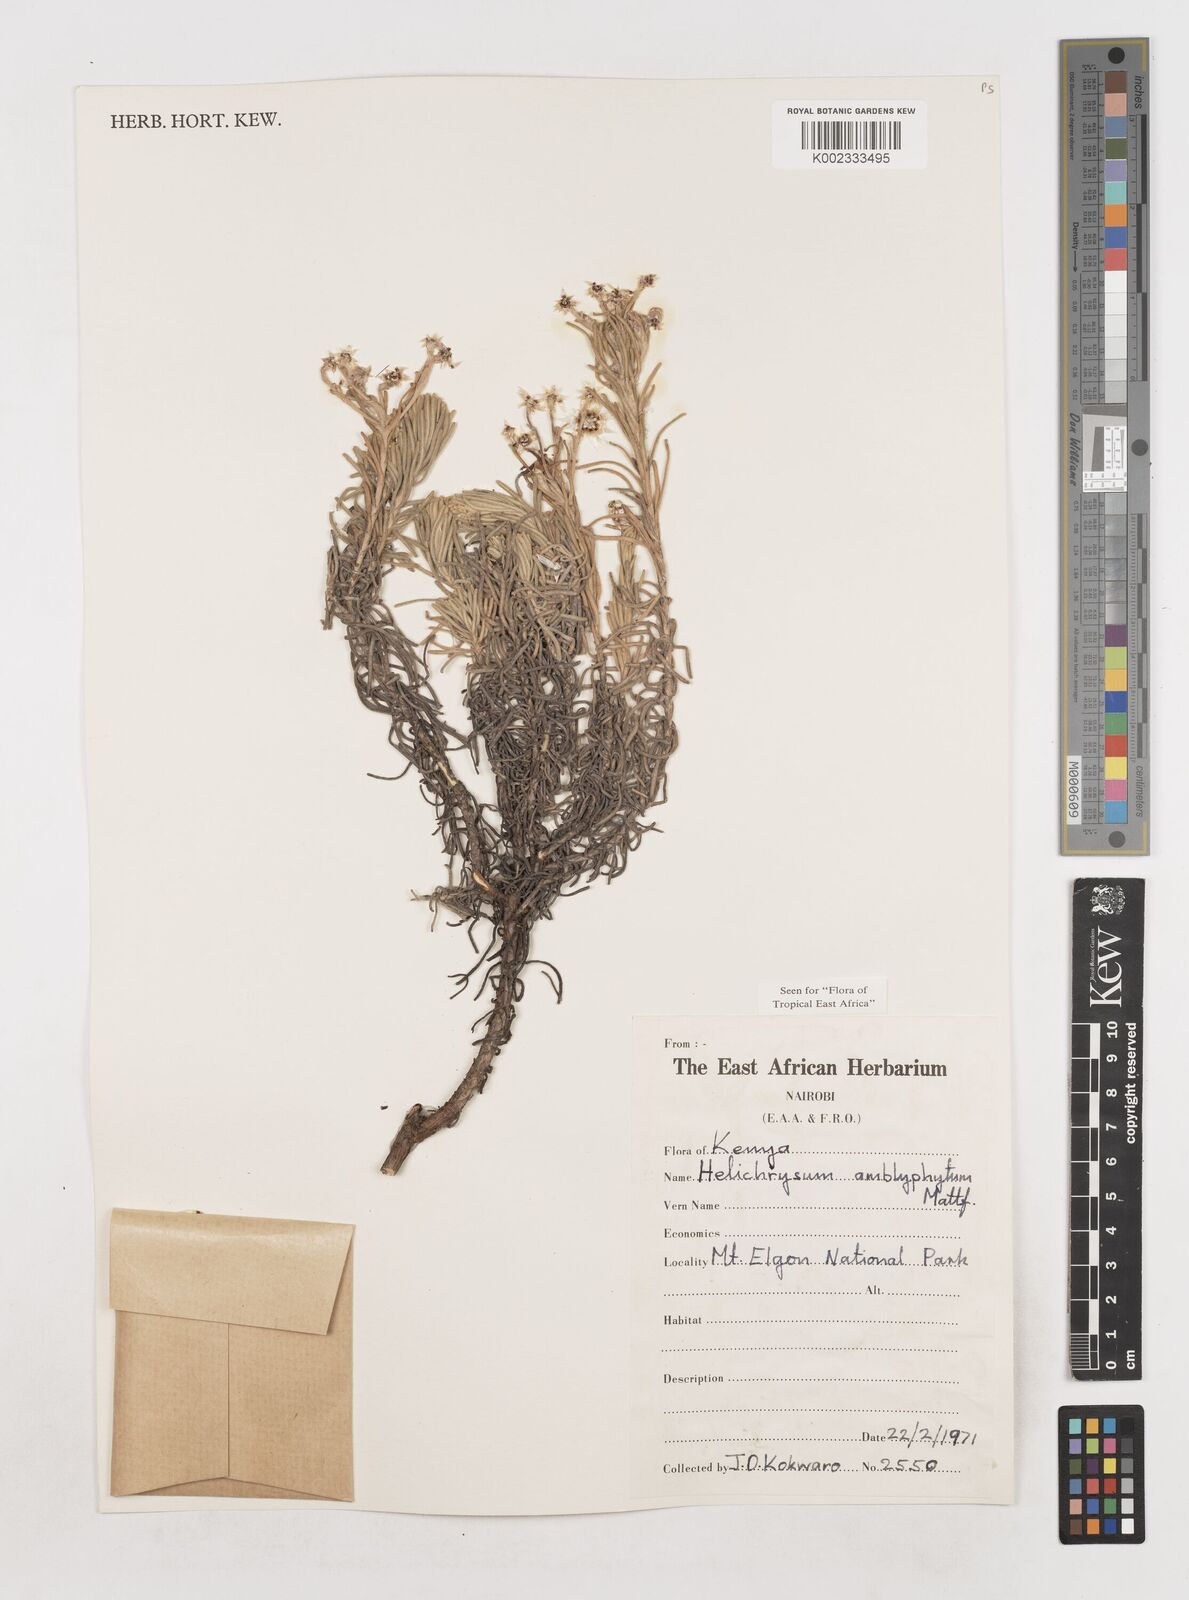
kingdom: Plantae
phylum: Tracheophyta
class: Magnoliopsida
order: Asterales
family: Asteraceae
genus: Helichrysum
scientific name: Helichrysum amblyphyllum
